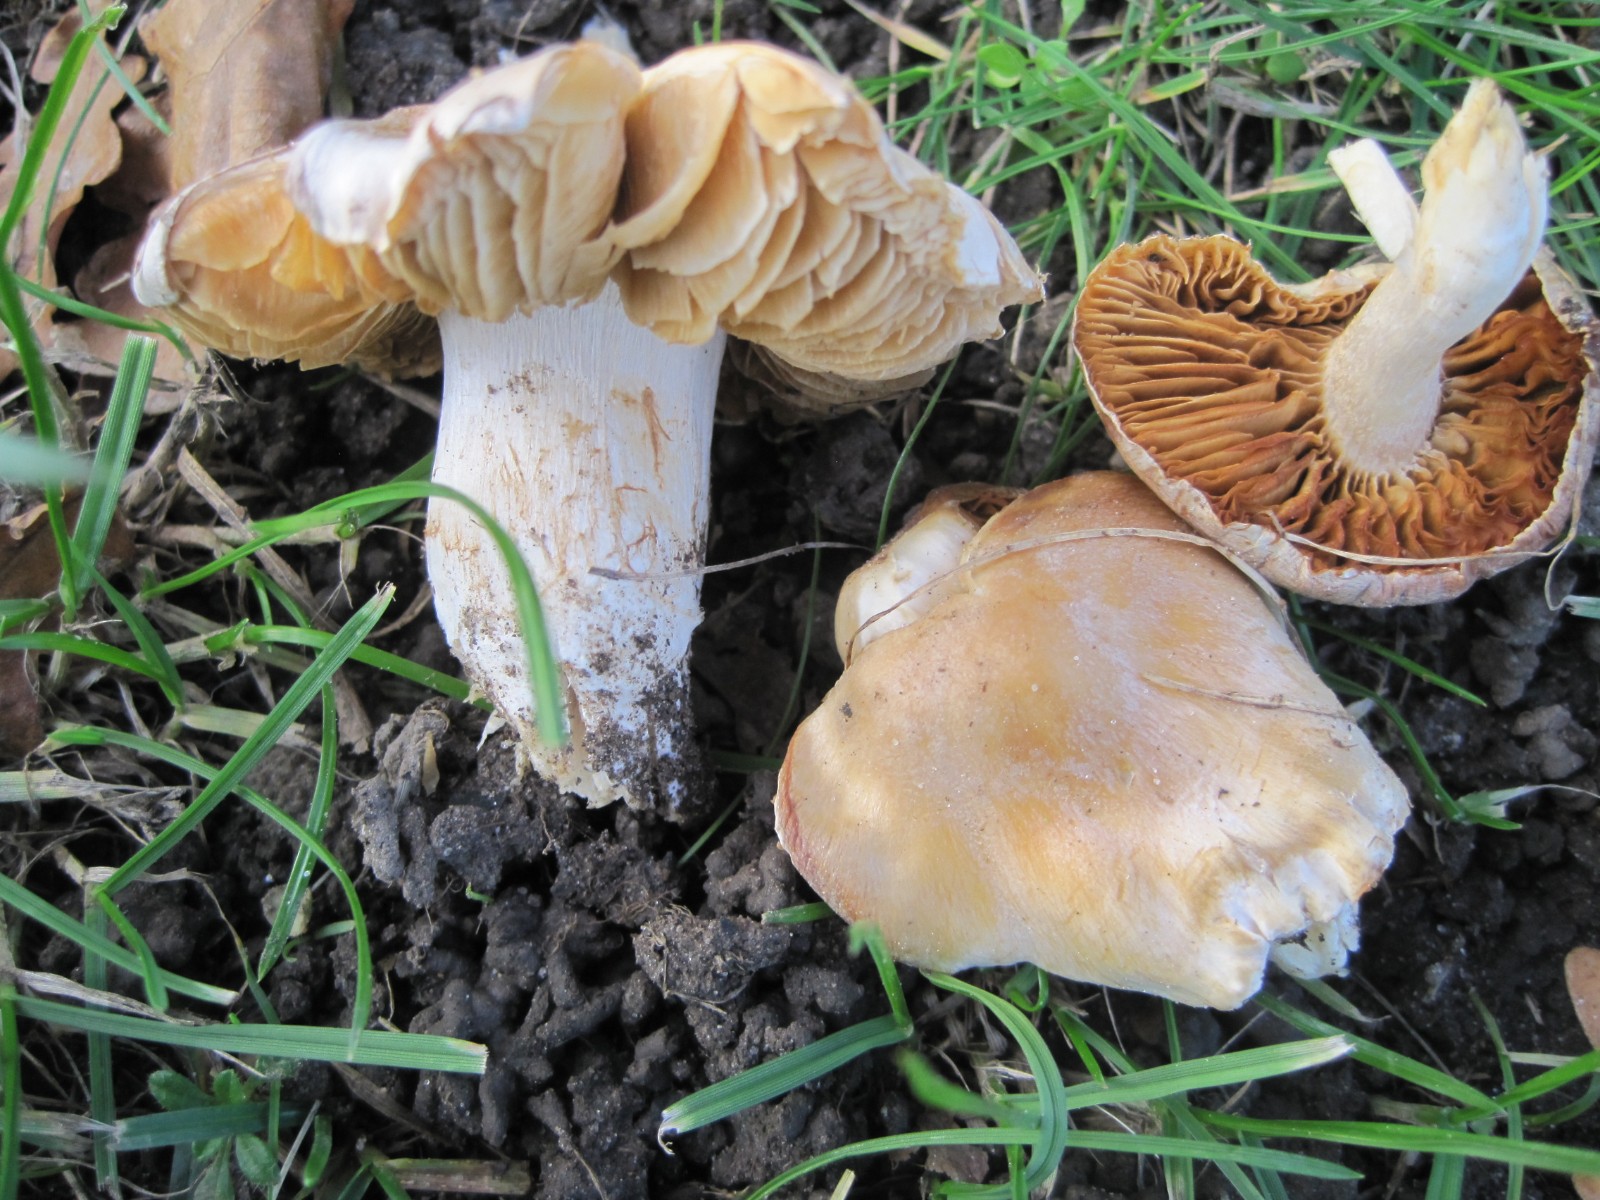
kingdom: Fungi
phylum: Basidiomycota
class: Agaricomycetes
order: Agaricales
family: Cortinariaceae
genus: Thaxterogaster
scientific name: Thaxterogaster barbatus
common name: elfenbens-slørhat
